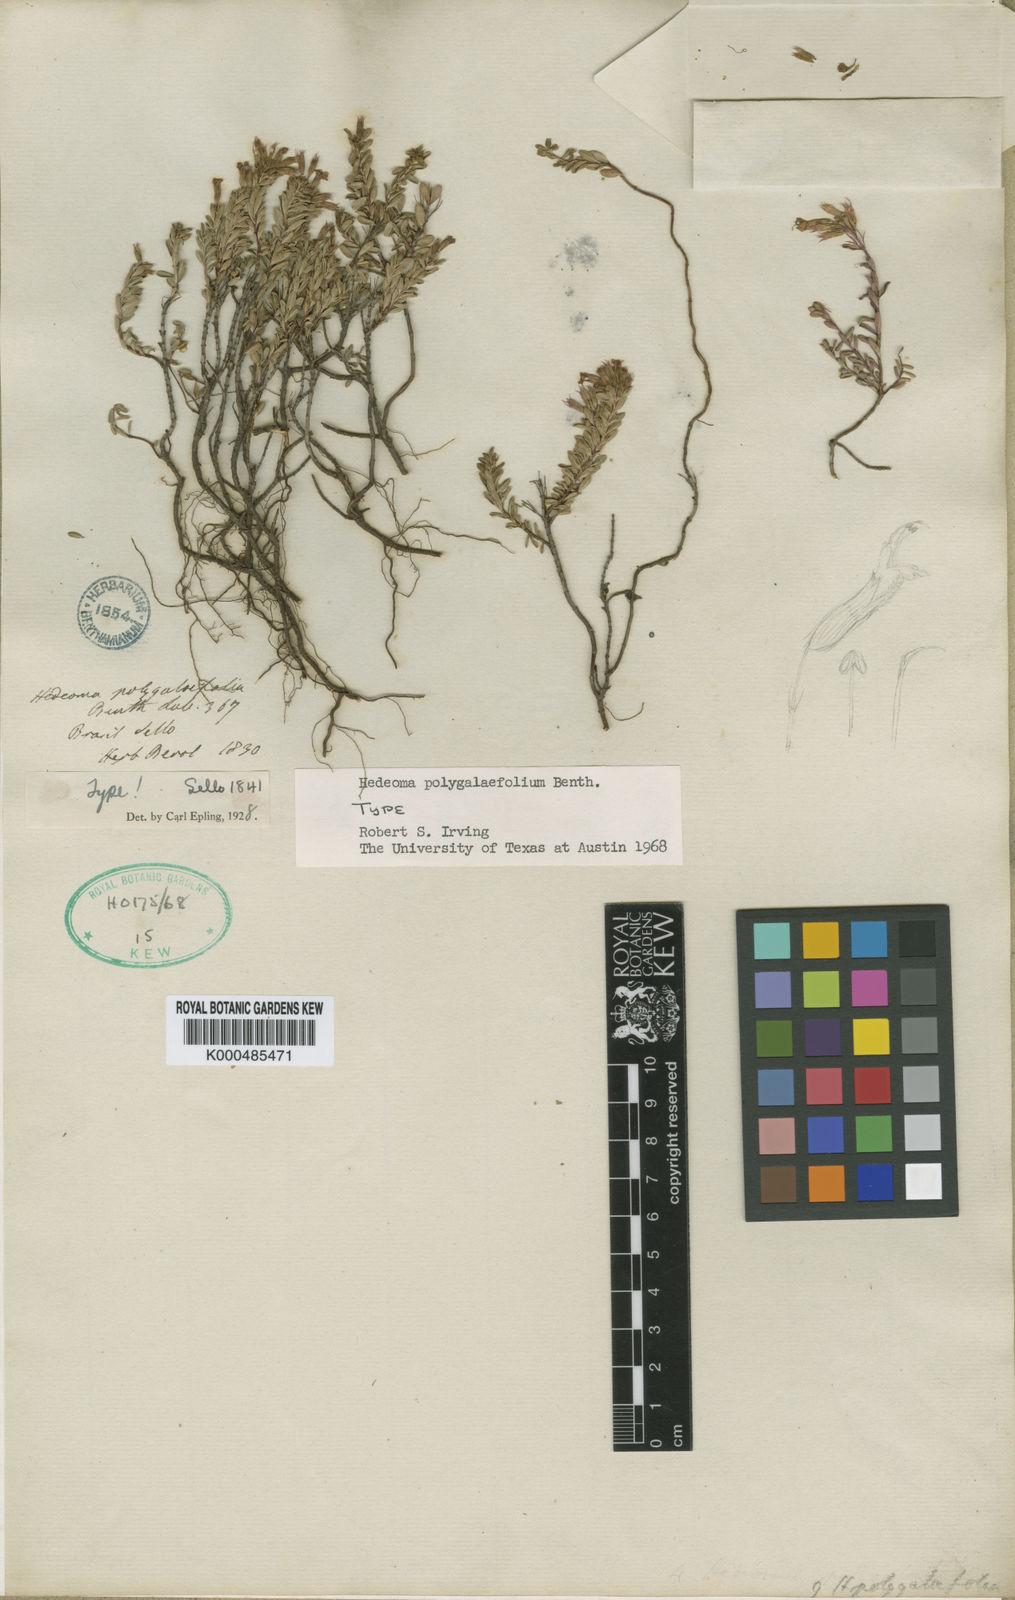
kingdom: Plantae
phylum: Tracheophyta
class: Magnoliopsida
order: Lamiales
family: Lamiaceae
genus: Hedeoma
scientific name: Hedeoma polygalifolia
